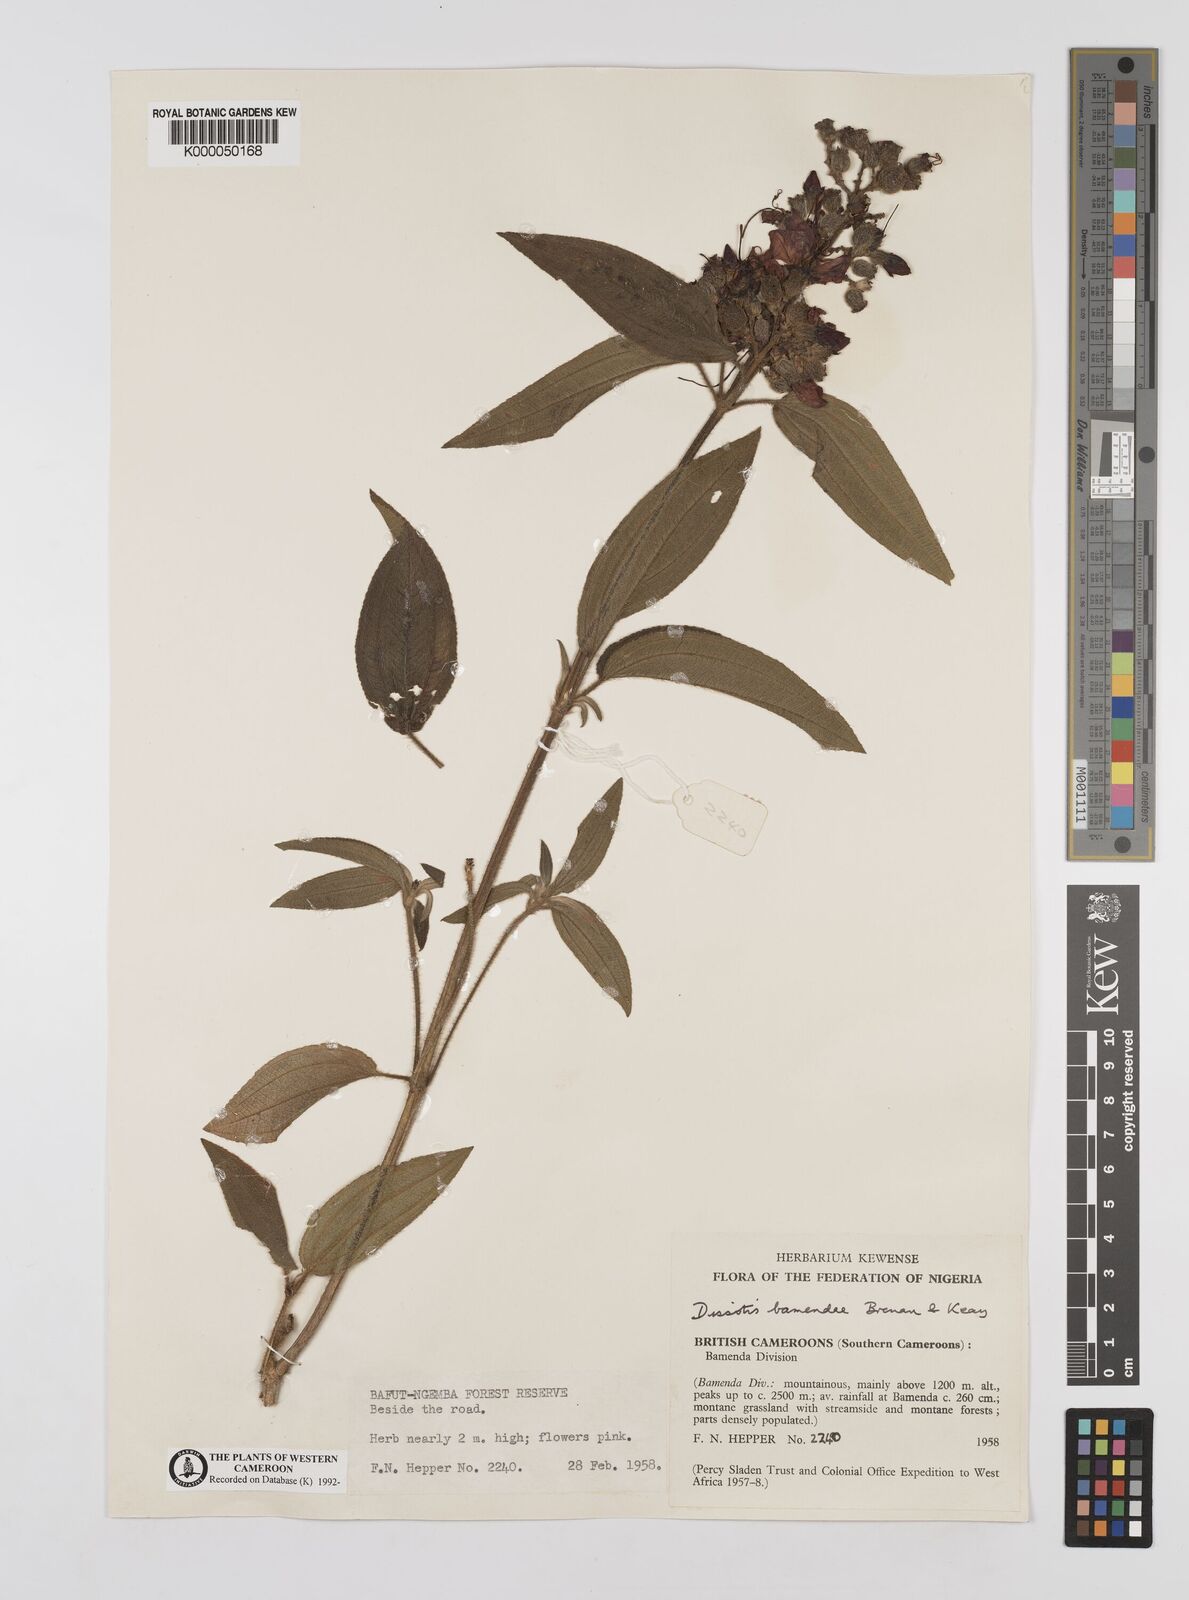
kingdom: Plantae
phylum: Tracheophyta
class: Magnoliopsida
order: Myrtales
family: Melastomataceae
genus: Rosettea
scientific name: Rosettea riparia
